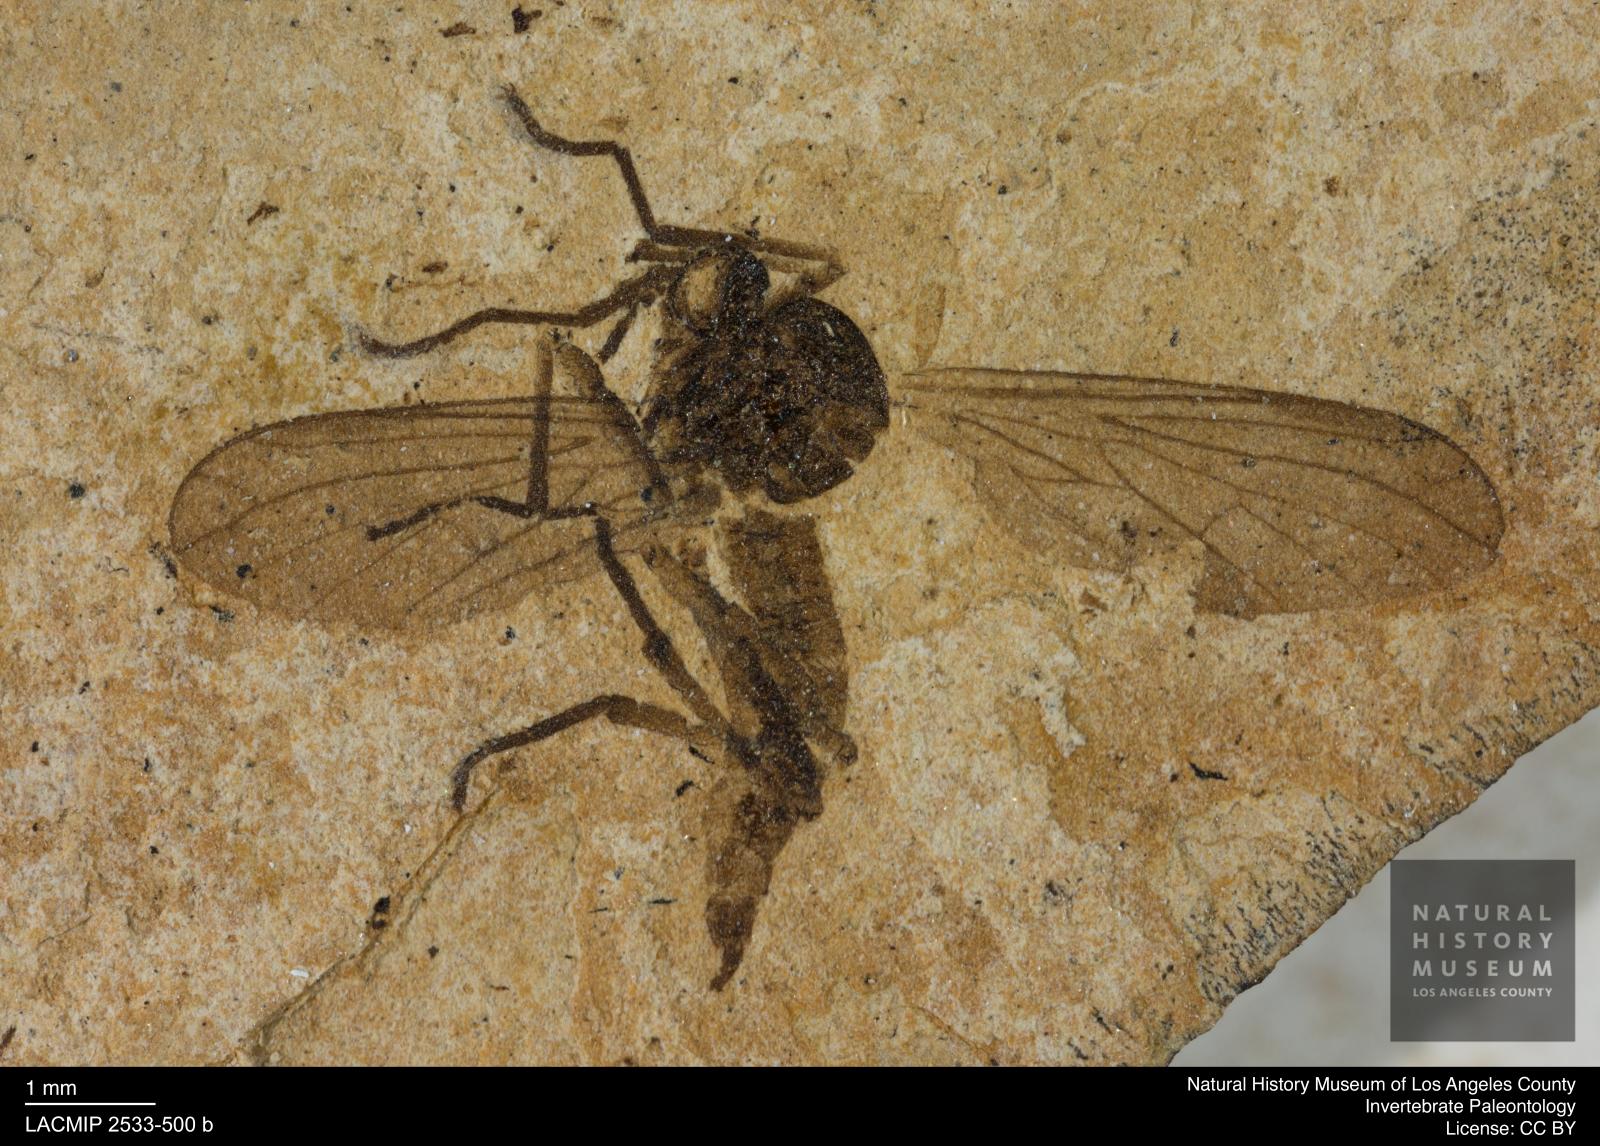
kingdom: Animalia
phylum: Arthropoda
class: Insecta
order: Diptera
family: Empididae
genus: Empis
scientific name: Empis umbonata
